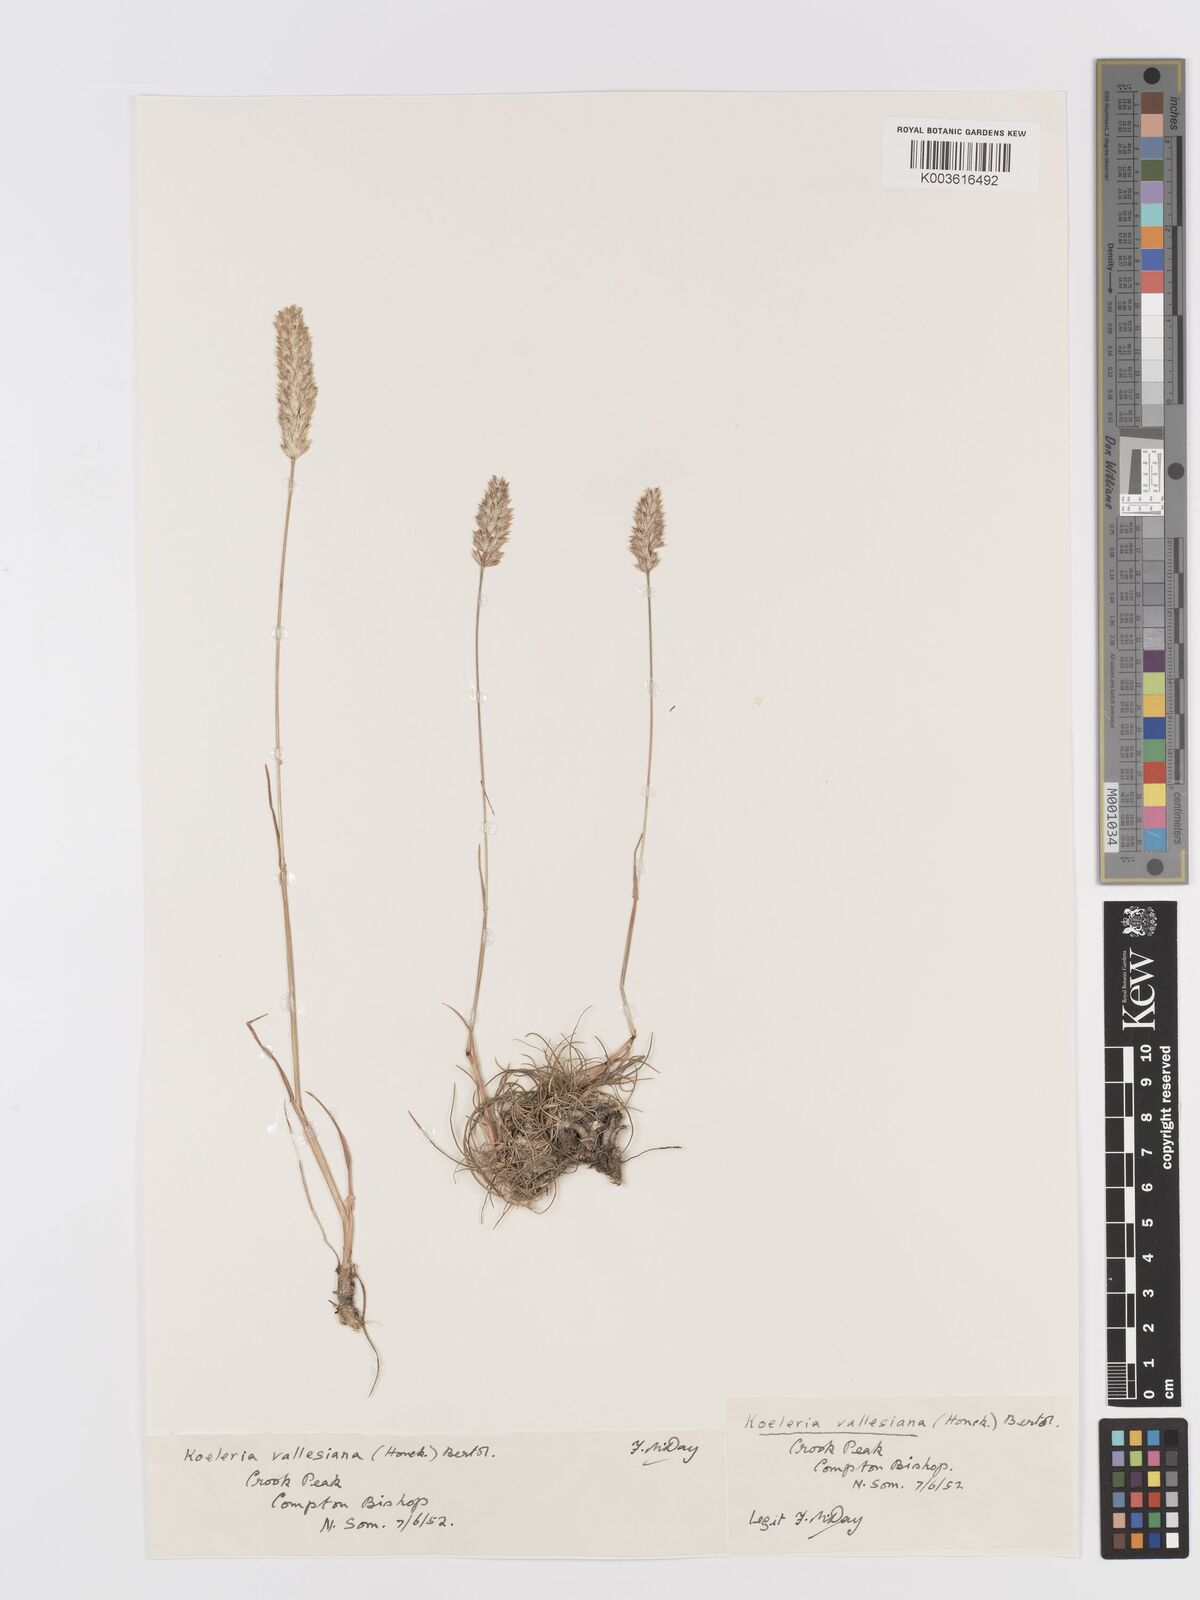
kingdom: Plantae
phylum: Tracheophyta
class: Liliopsida
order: Poales
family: Poaceae
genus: Koeleria
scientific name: Koeleria vallesiana
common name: Somerset hair-grass
